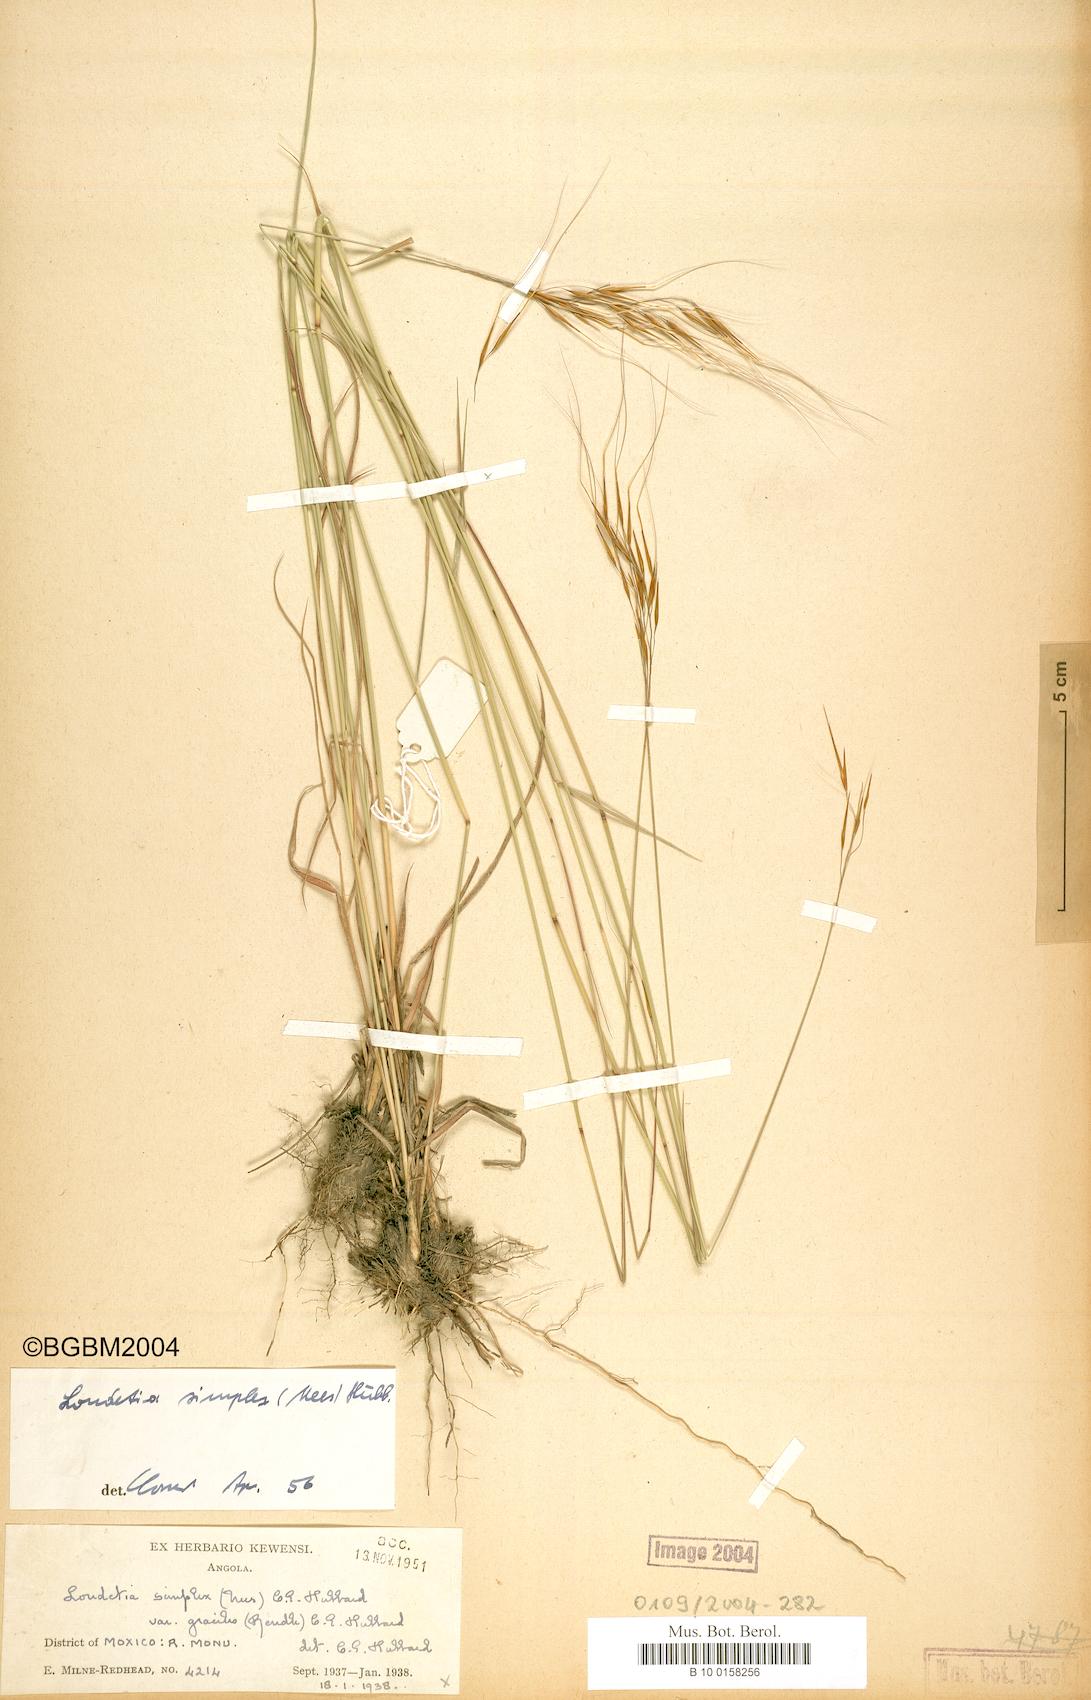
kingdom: Plantae
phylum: Tracheophyta
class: Liliopsida
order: Poales
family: Poaceae
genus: Loudetia
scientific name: Loudetia simplex
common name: Common russet grass
